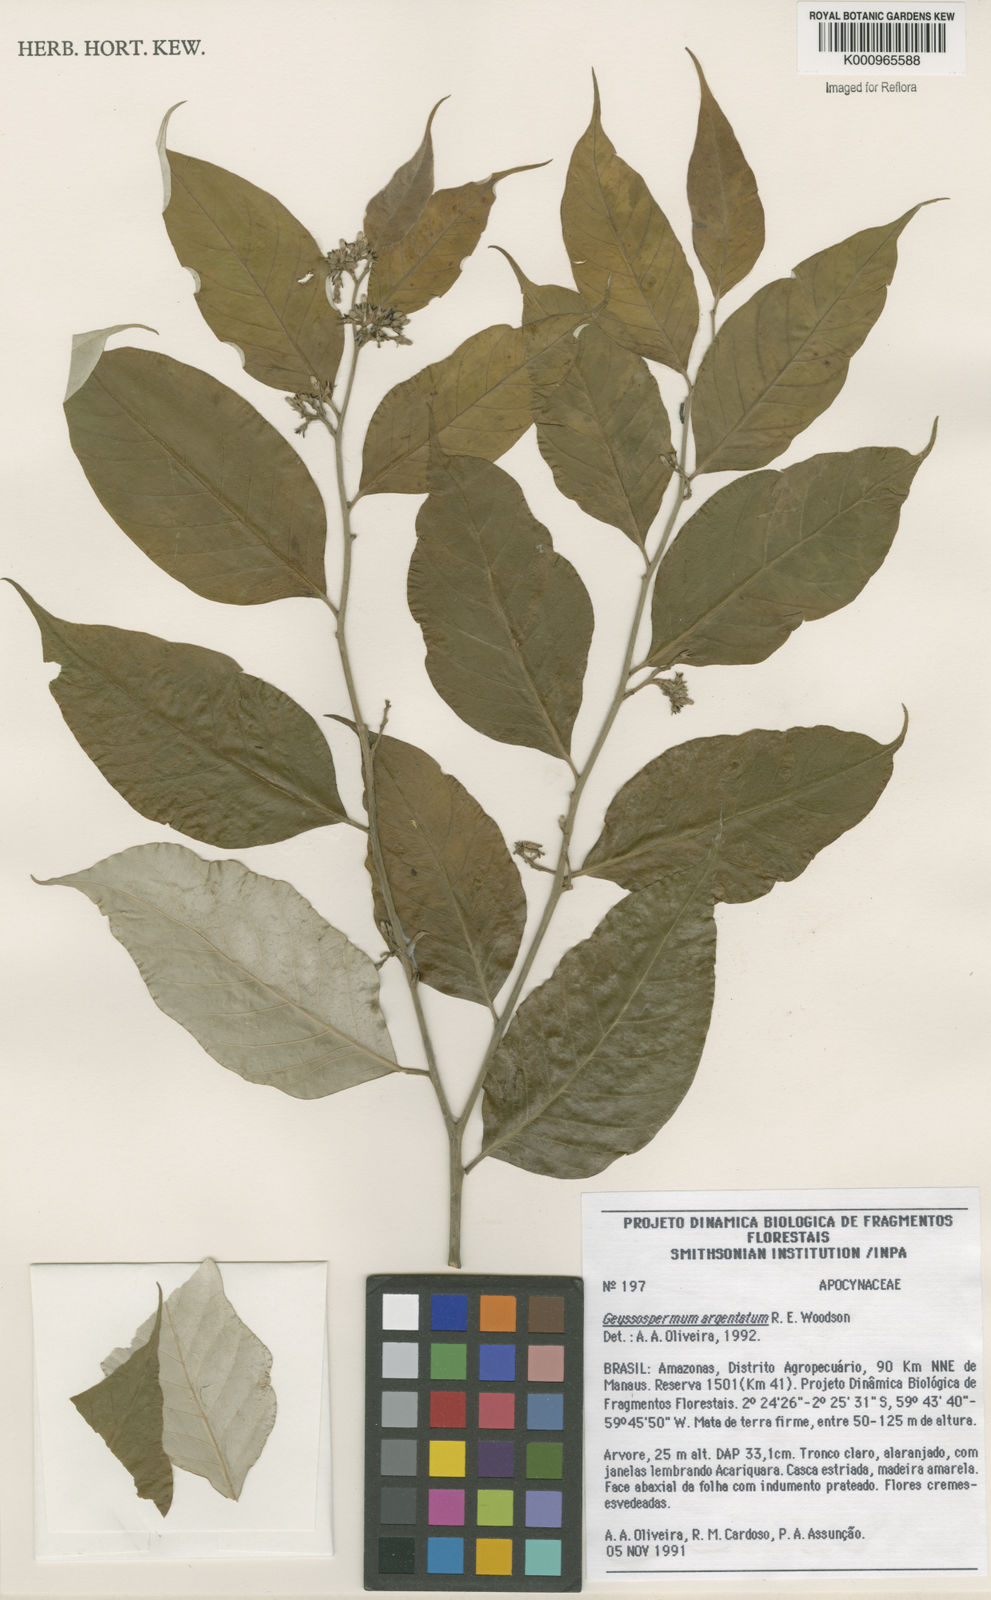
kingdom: Plantae
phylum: Tracheophyta
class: Magnoliopsida
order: Gentianales
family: Apocynaceae
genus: Geissospermum
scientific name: Geissospermum argenteum
